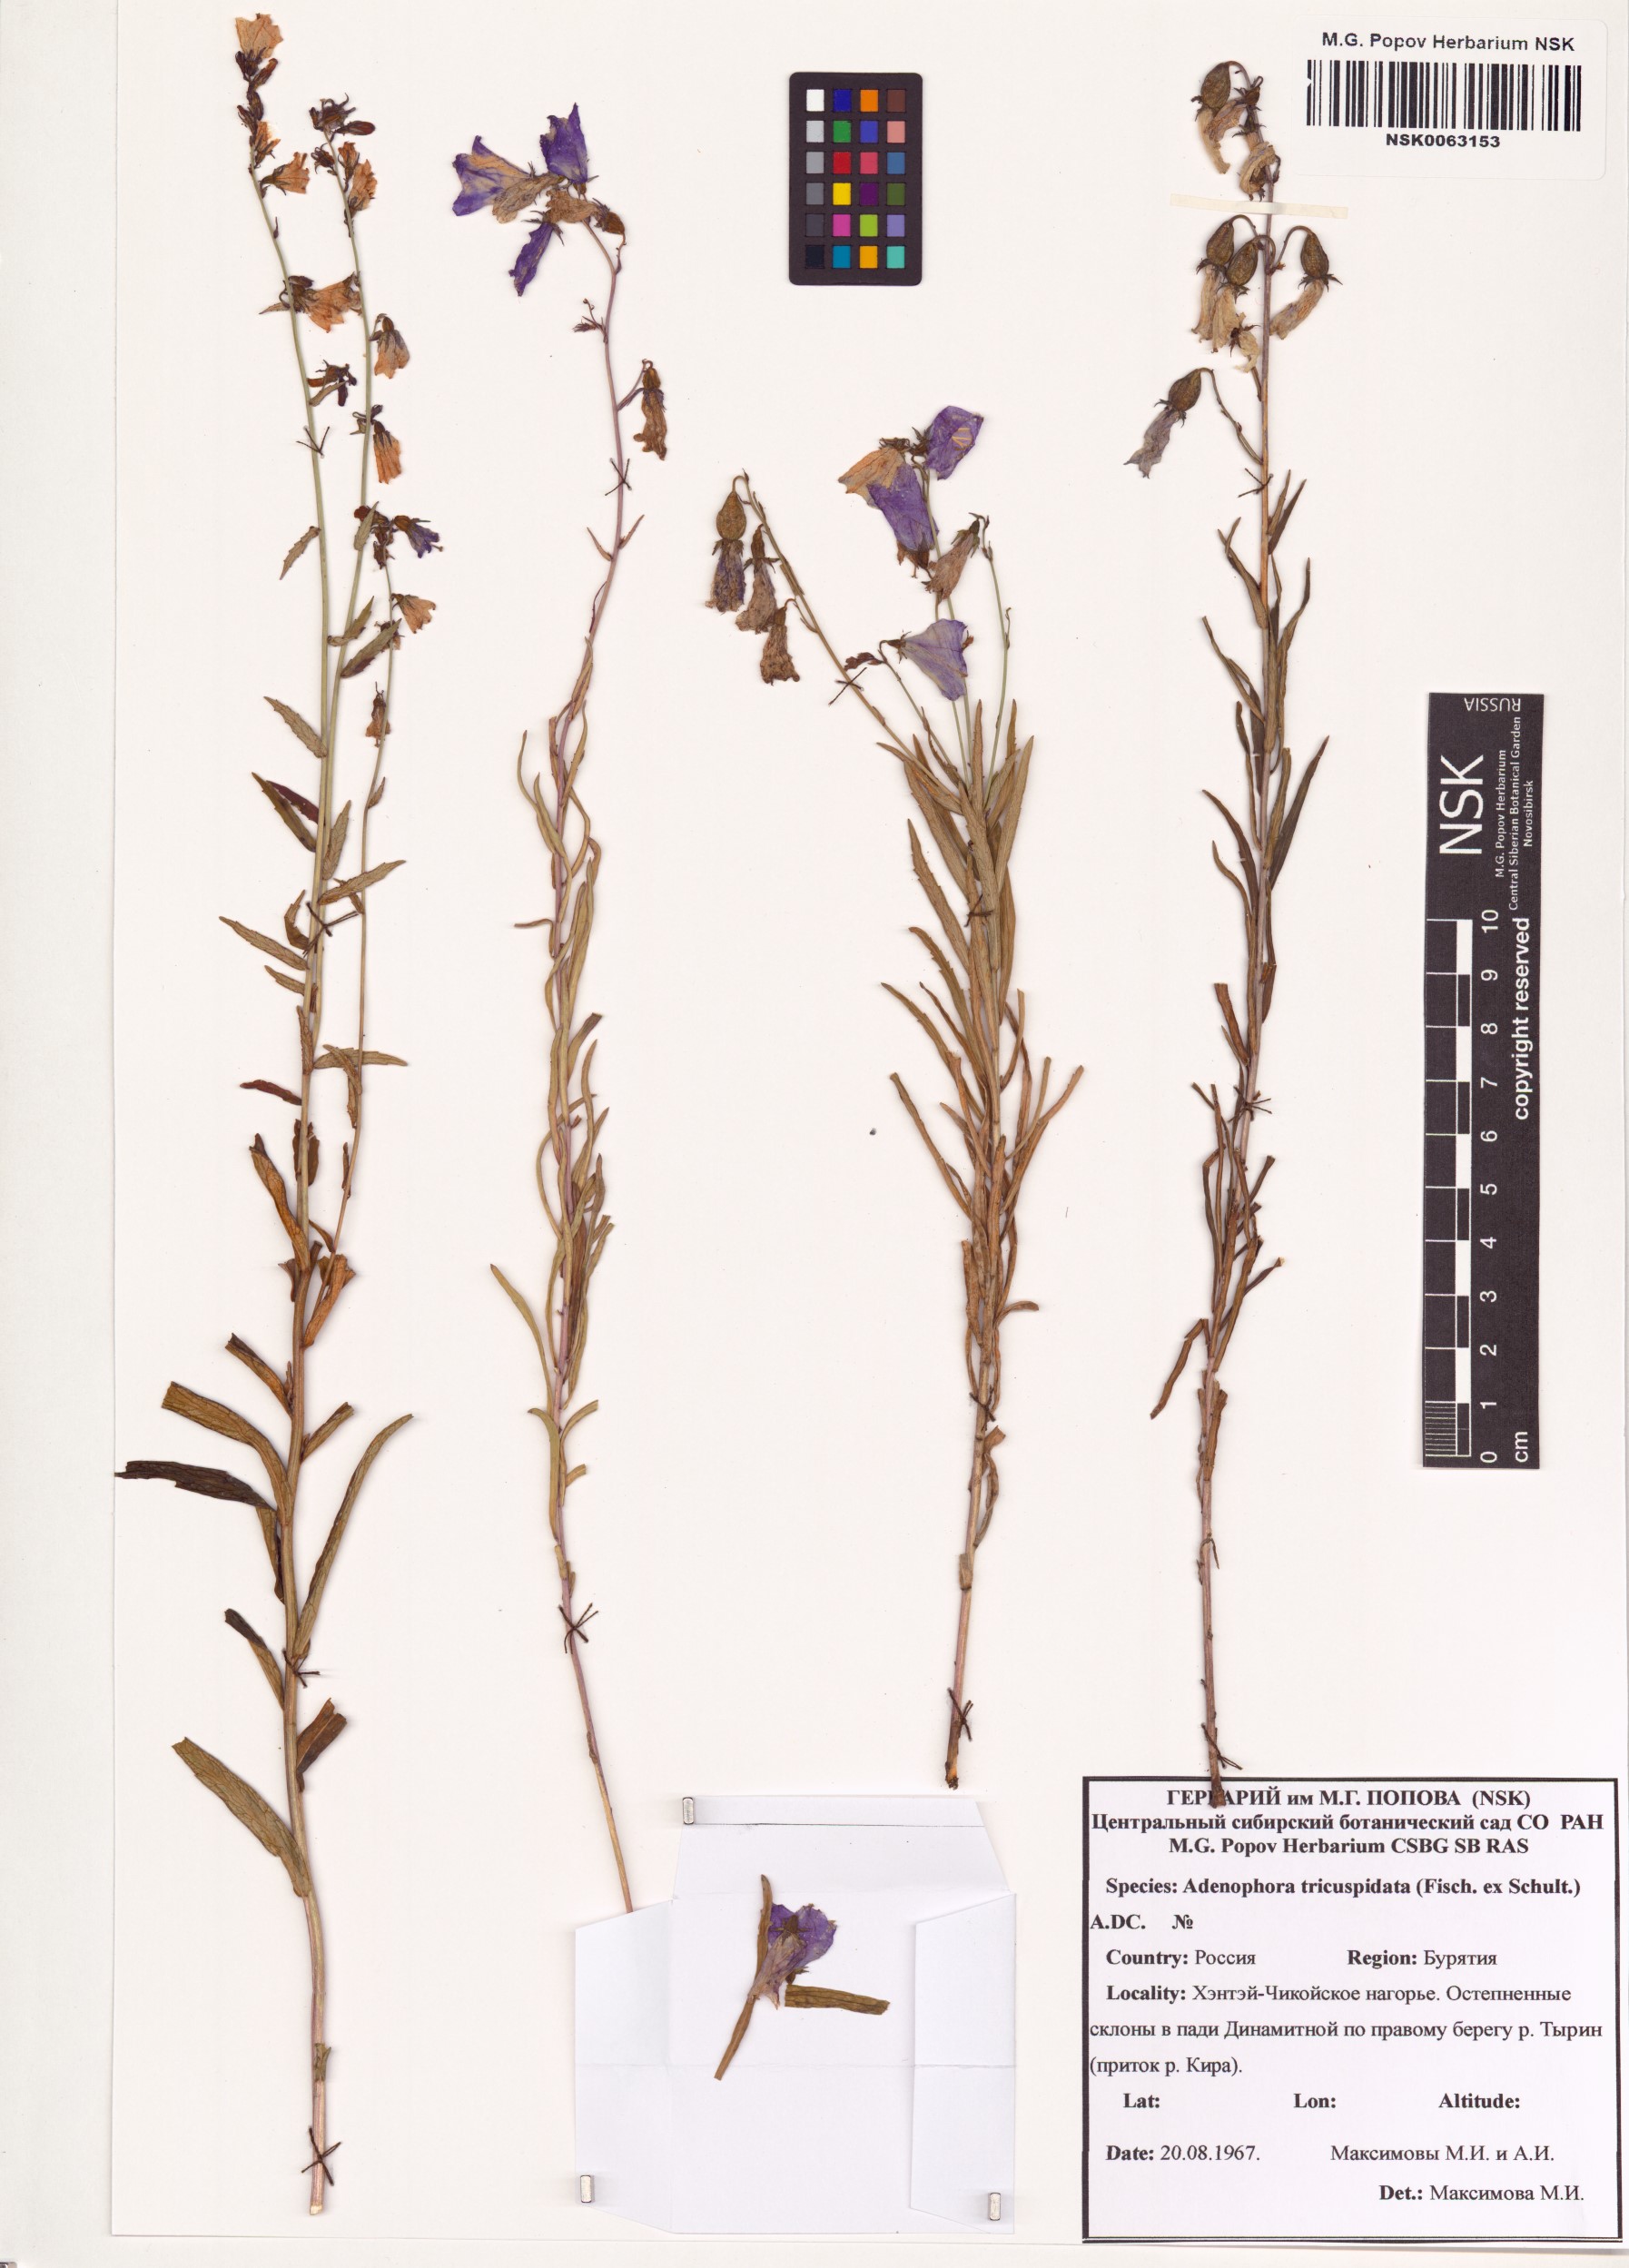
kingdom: Plantae
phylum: Tracheophyta
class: Magnoliopsida
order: Asterales
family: Campanulaceae
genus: Adenophora
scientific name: Adenophora tricuspidata
